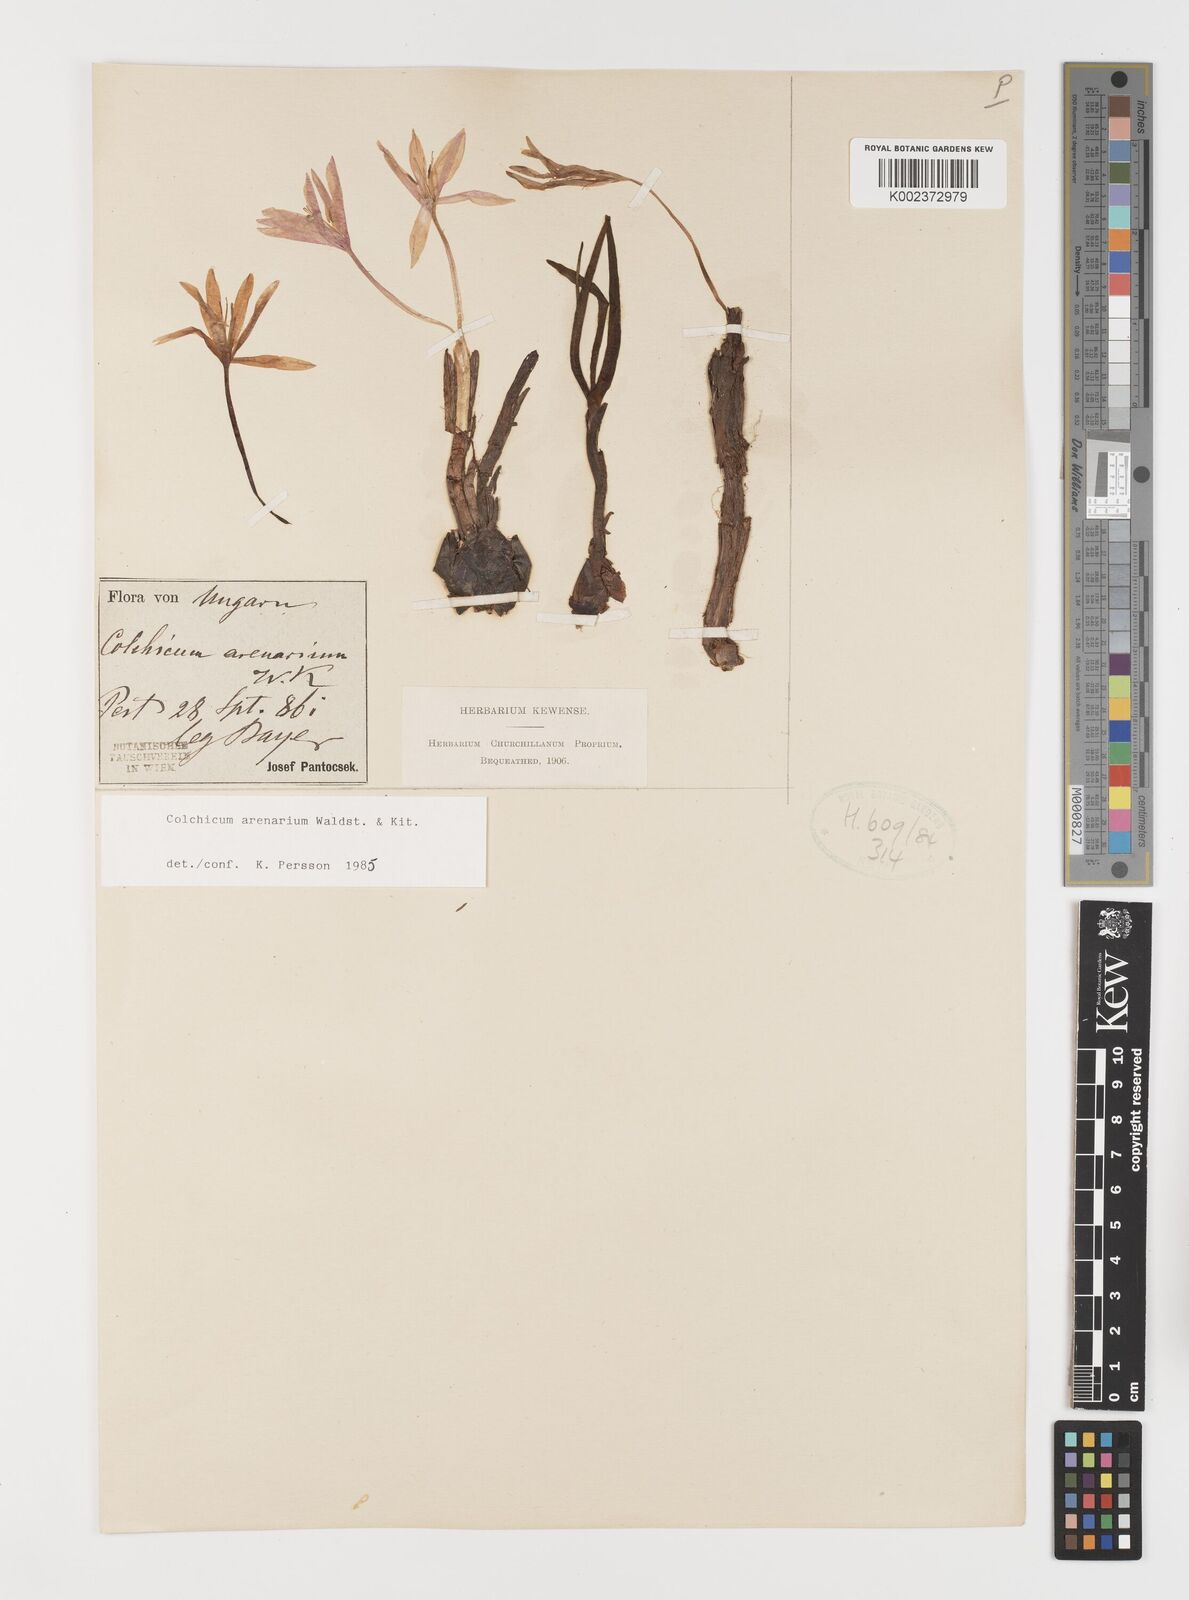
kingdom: Plantae
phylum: Tracheophyta
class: Liliopsida
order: Liliales
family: Colchicaceae
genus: Colchicum
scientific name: Colchicum arenarium
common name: Sand saffron
